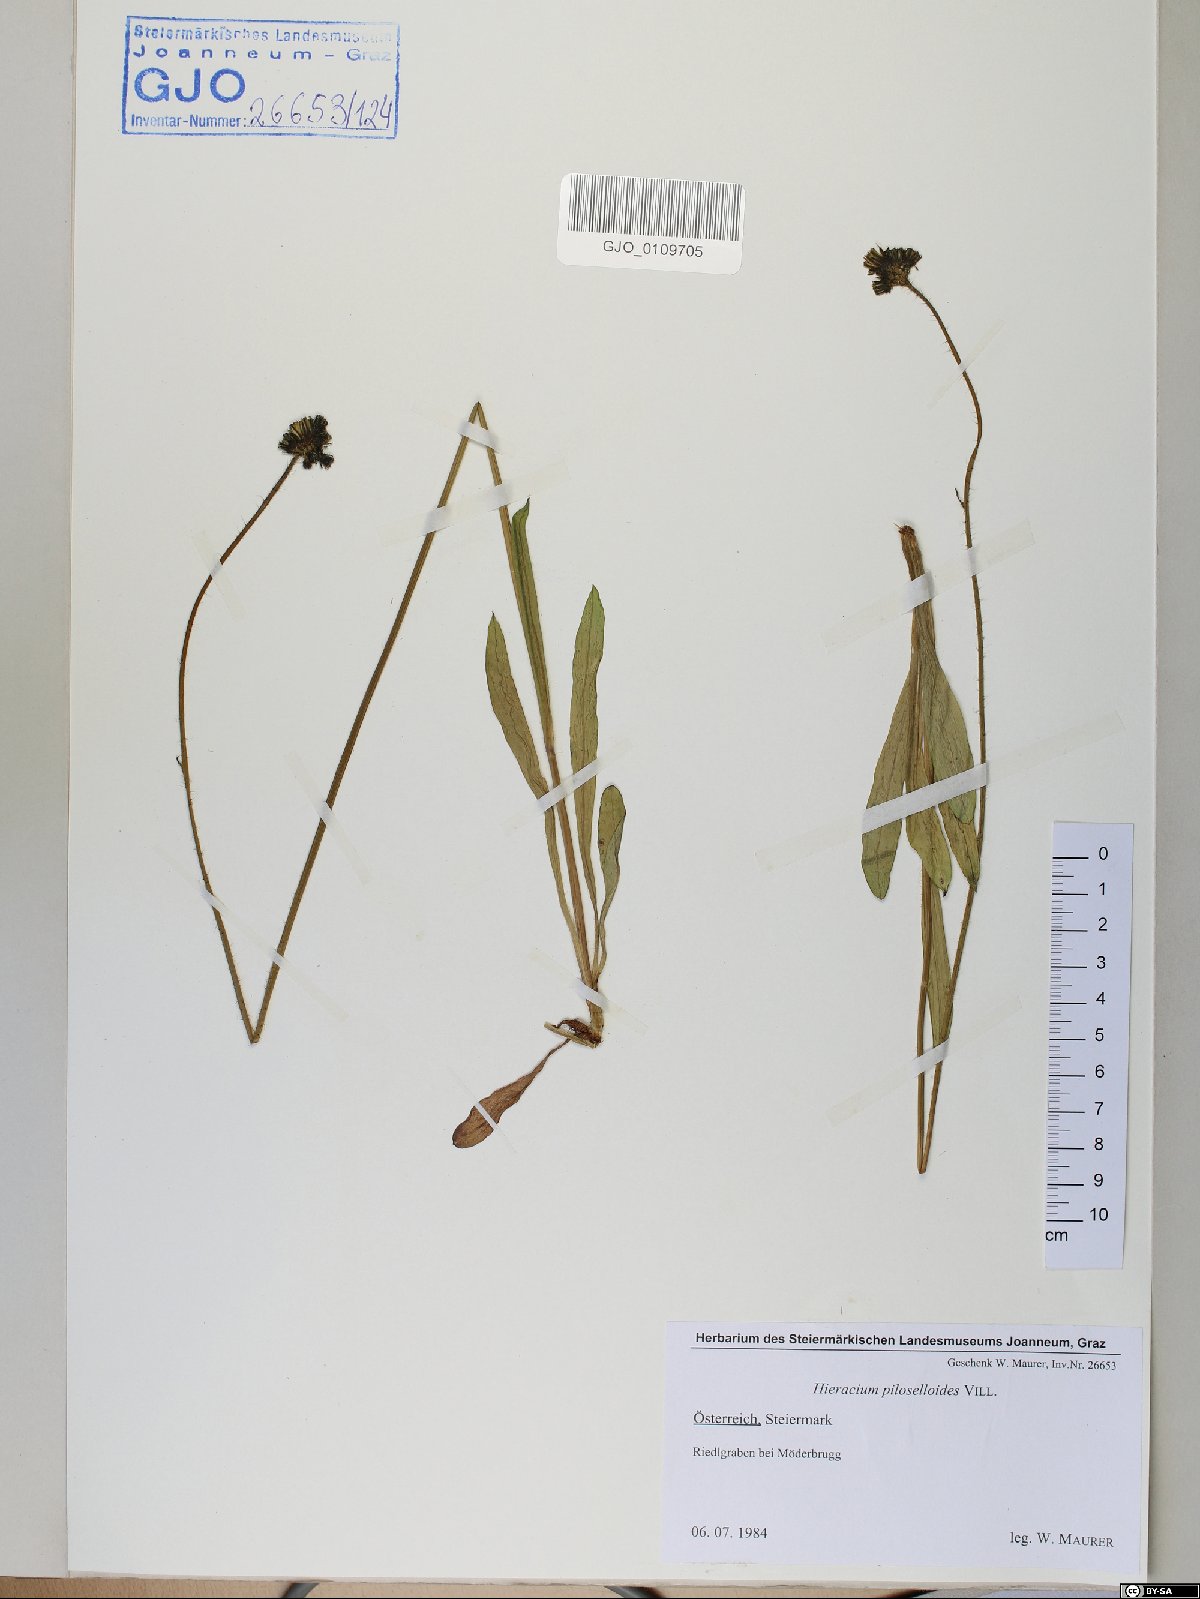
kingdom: Plantae
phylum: Tracheophyta
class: Magnoliopsida
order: Asterales
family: Asteraceae
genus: Pilosella
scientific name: Pilosella piloselloides
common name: Glaucous king-devil
